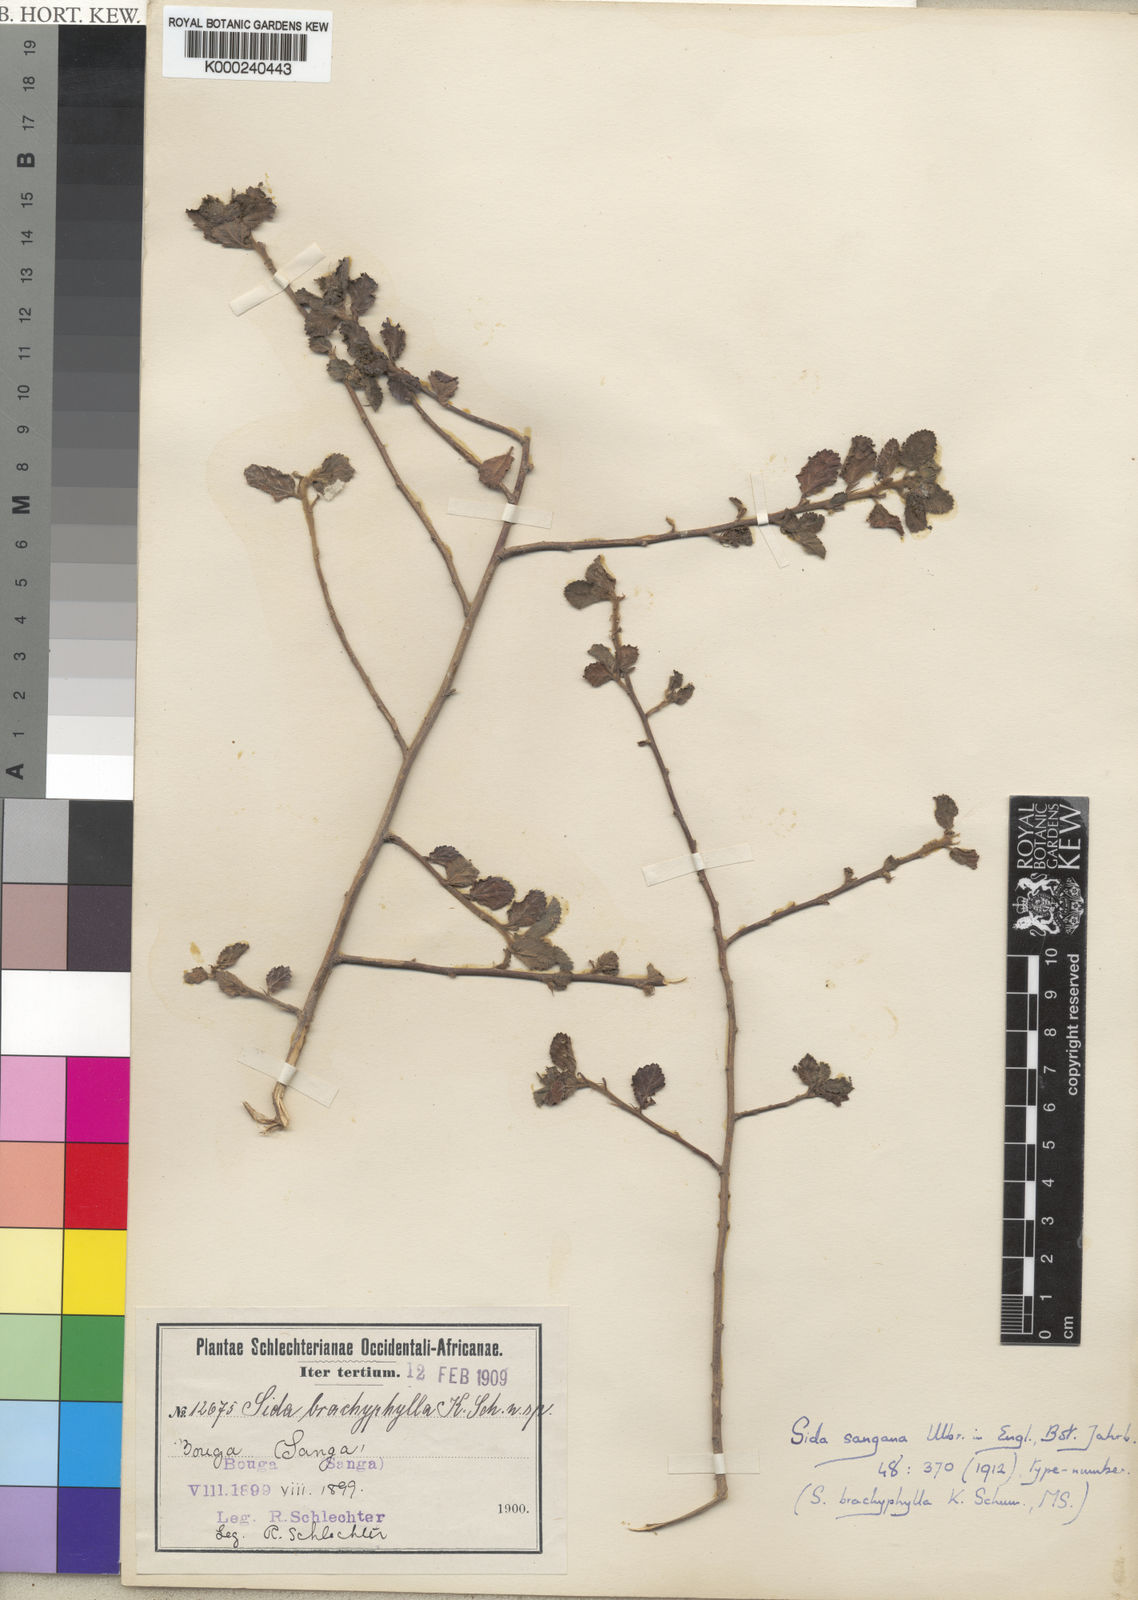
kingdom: Plantae
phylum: Tracheophyta
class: Magnoliopsida
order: Malvales
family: Malvaceae
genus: Sida
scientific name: Sida sangana
